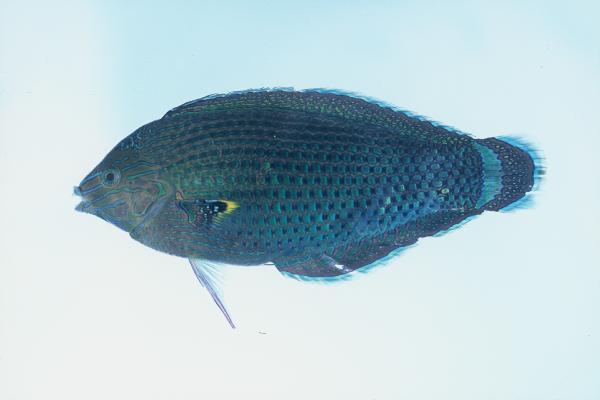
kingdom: Animalia
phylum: Chordata
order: Perciformes
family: Labridae
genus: Halichoeres
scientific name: Halichoeres marginatus
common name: Dusky wrasse
